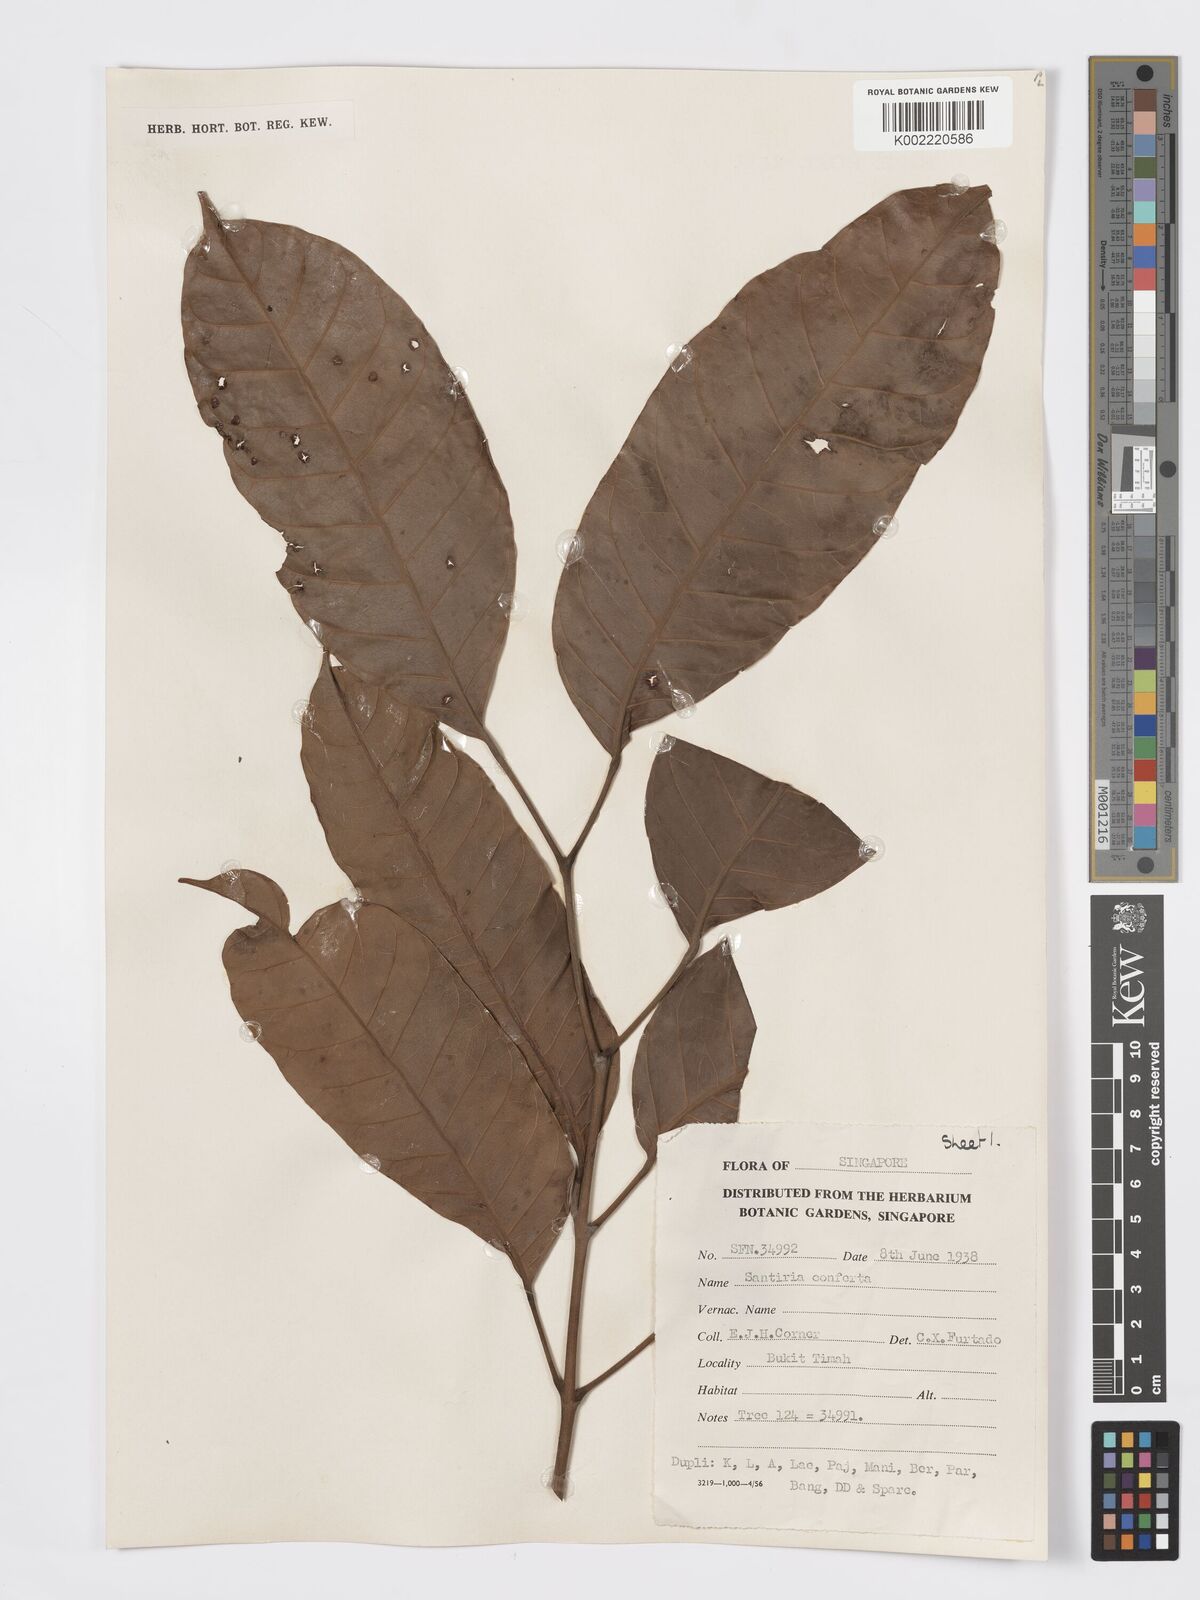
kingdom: Plantae
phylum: Tracheophyta
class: Magnoliopsida
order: Sapindales
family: Burseraceae
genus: Santiria
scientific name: Santiria conferta
